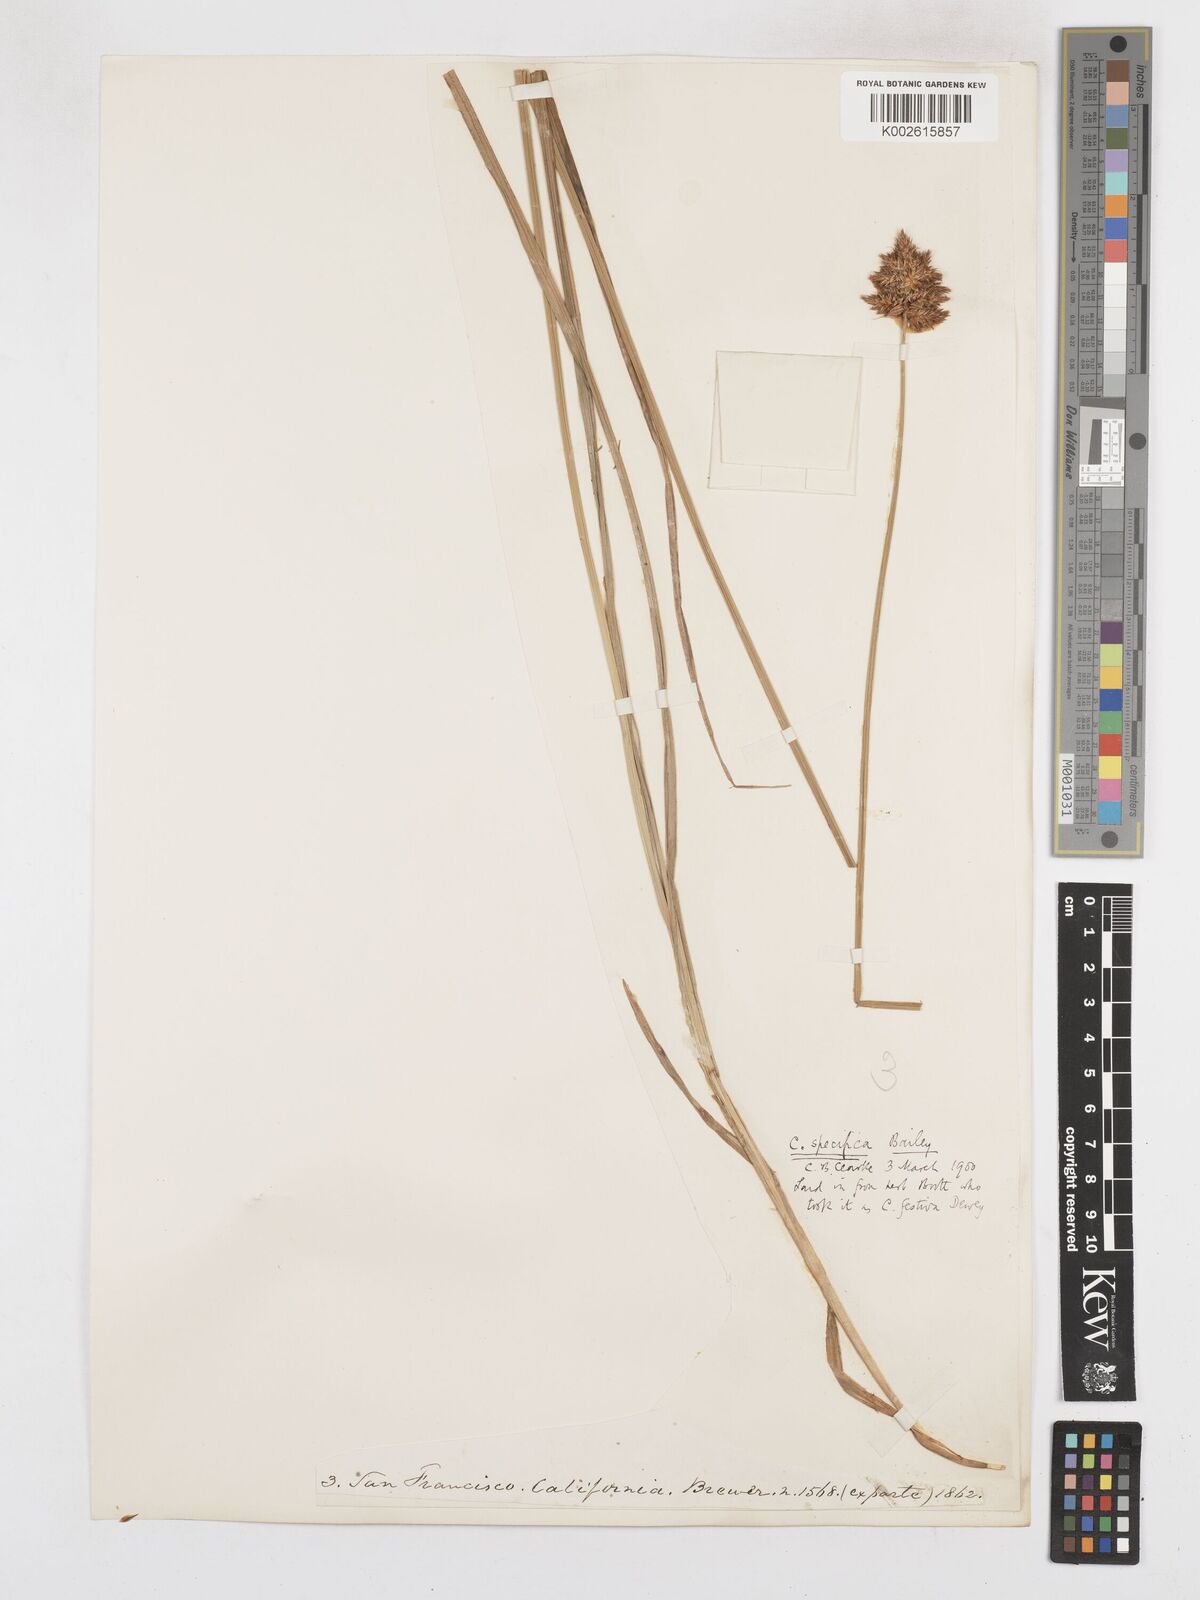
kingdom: Plantae
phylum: Tracheophyta
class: Liliopsida
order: Poales
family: Cyperaceae
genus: Carex
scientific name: Carex specifica
